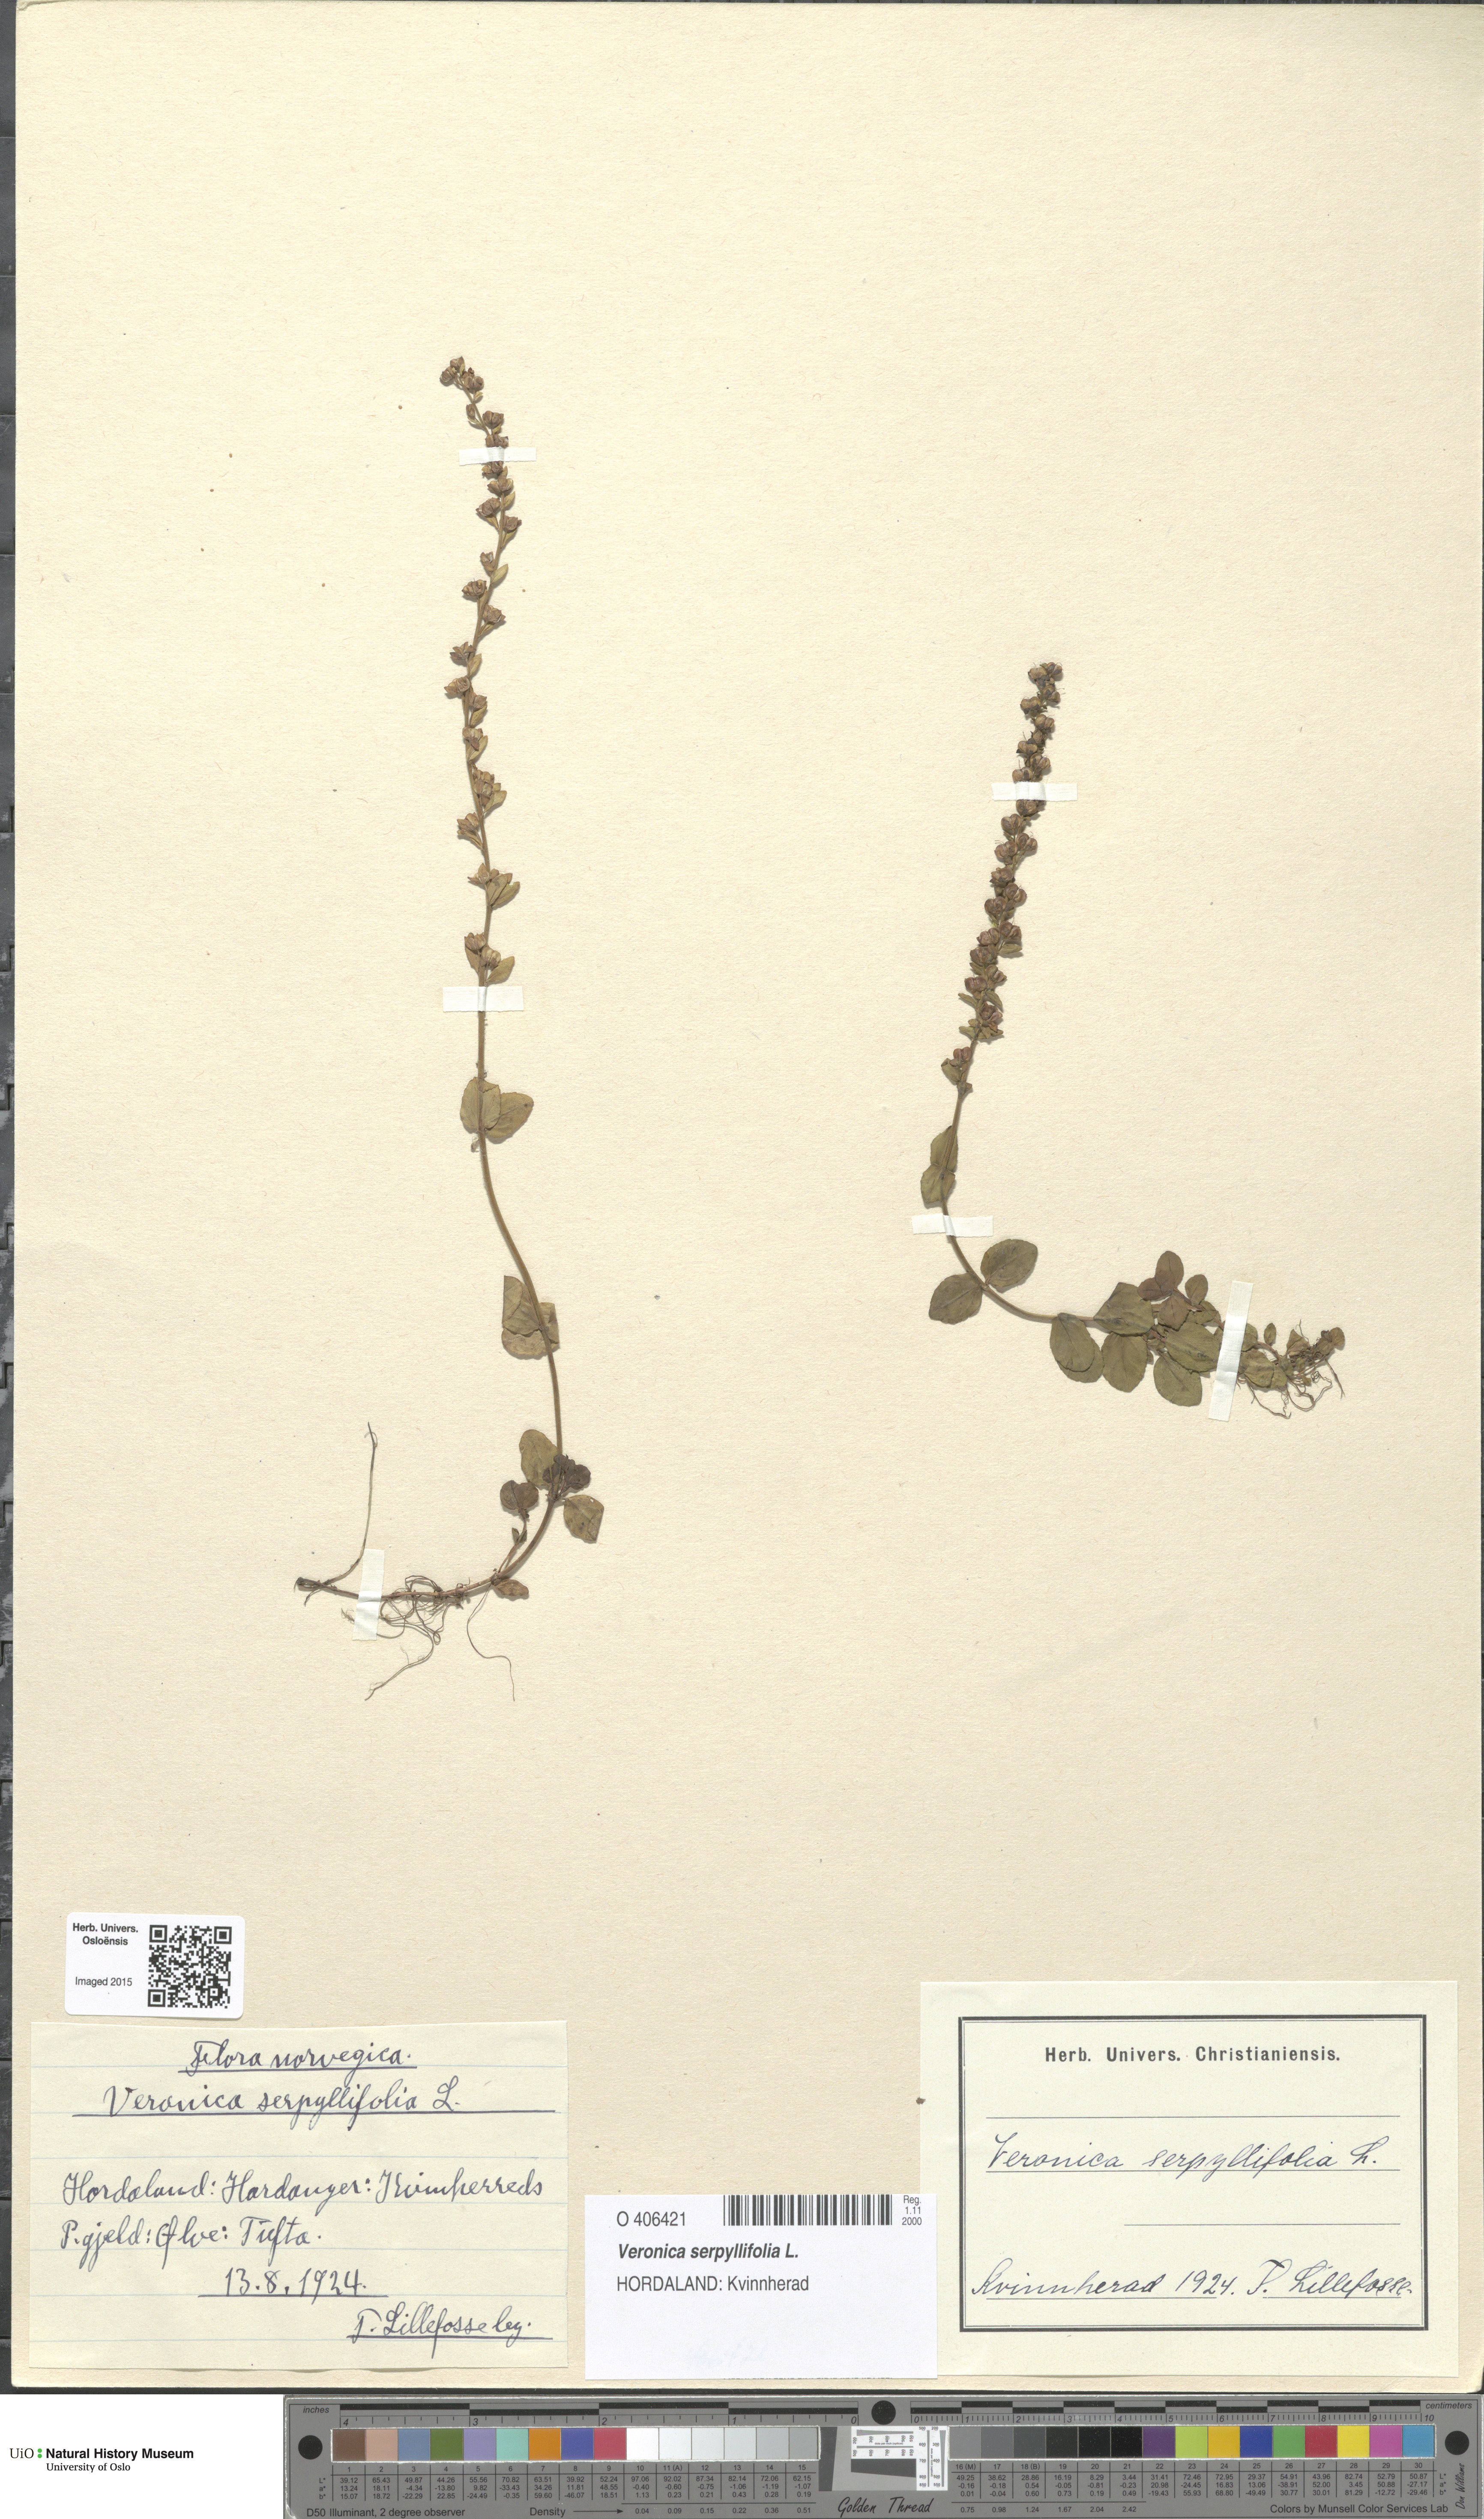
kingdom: Plantae
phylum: Tracheophyta
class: Magnoliopsida
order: Lamiales
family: Plantaginaceae
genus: Veronica
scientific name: Veronica serpyllifolia
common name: Thyme-leaved speedwell
